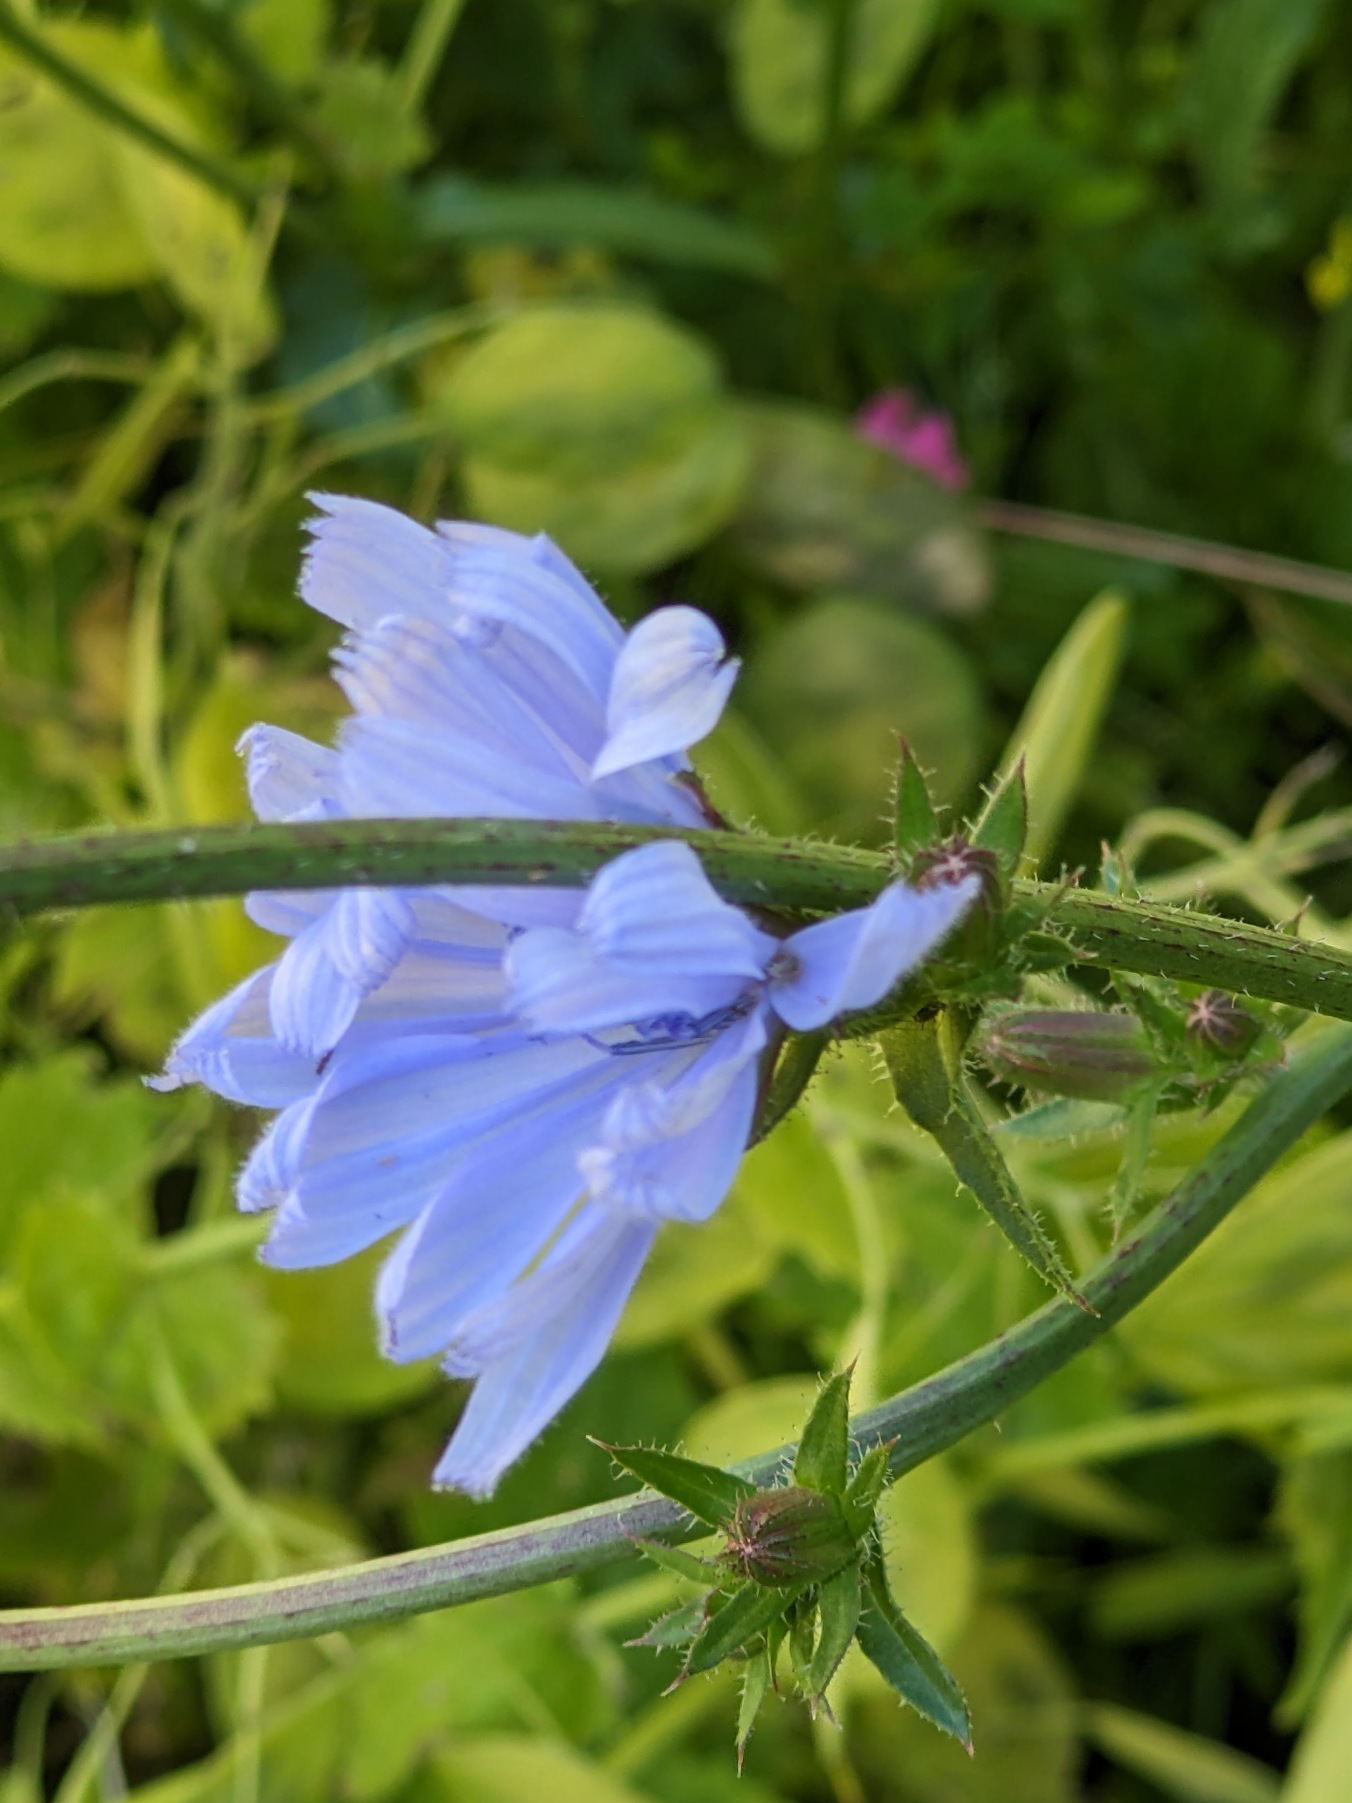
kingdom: Plantae
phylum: Tracheophyta
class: Magnoliopsida
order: Asterales
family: Asteraceae
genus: Cichorium
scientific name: Cichorium intybus
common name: Cikorie
